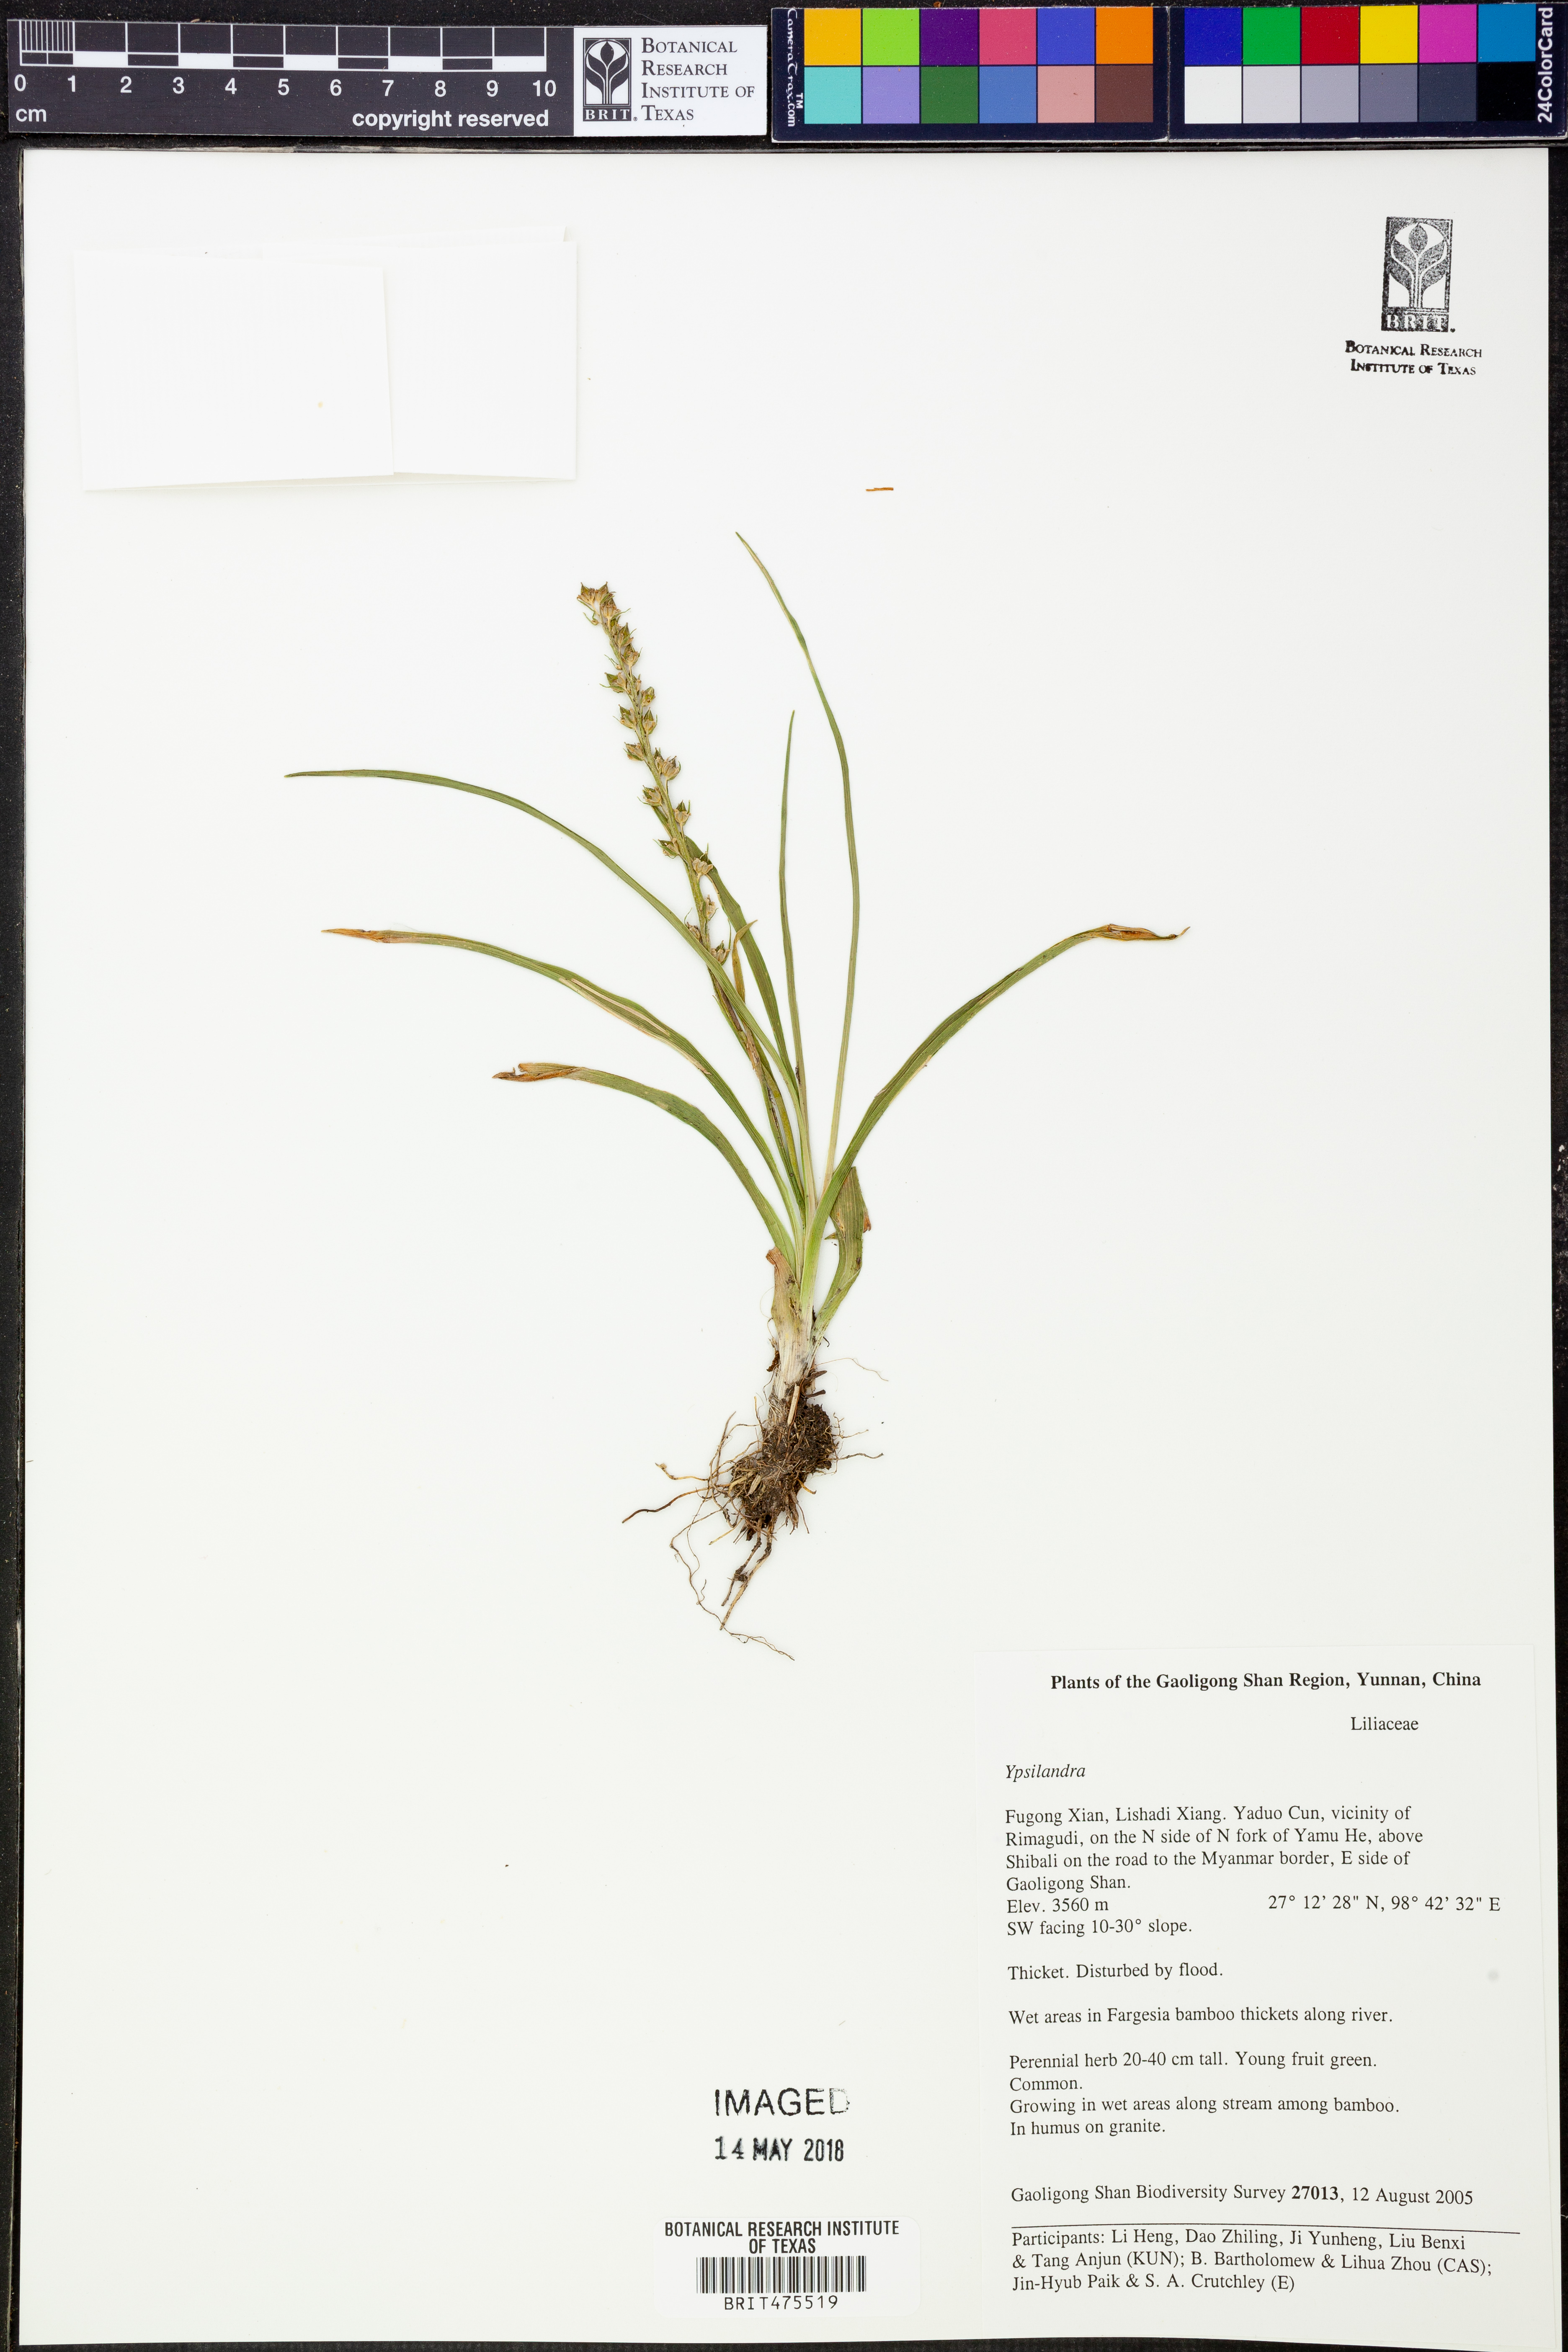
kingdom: Plantae
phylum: Tracheophyta
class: Liliopsida
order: Liliales
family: Melanthiaceae
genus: Helonias
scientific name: Helonias
